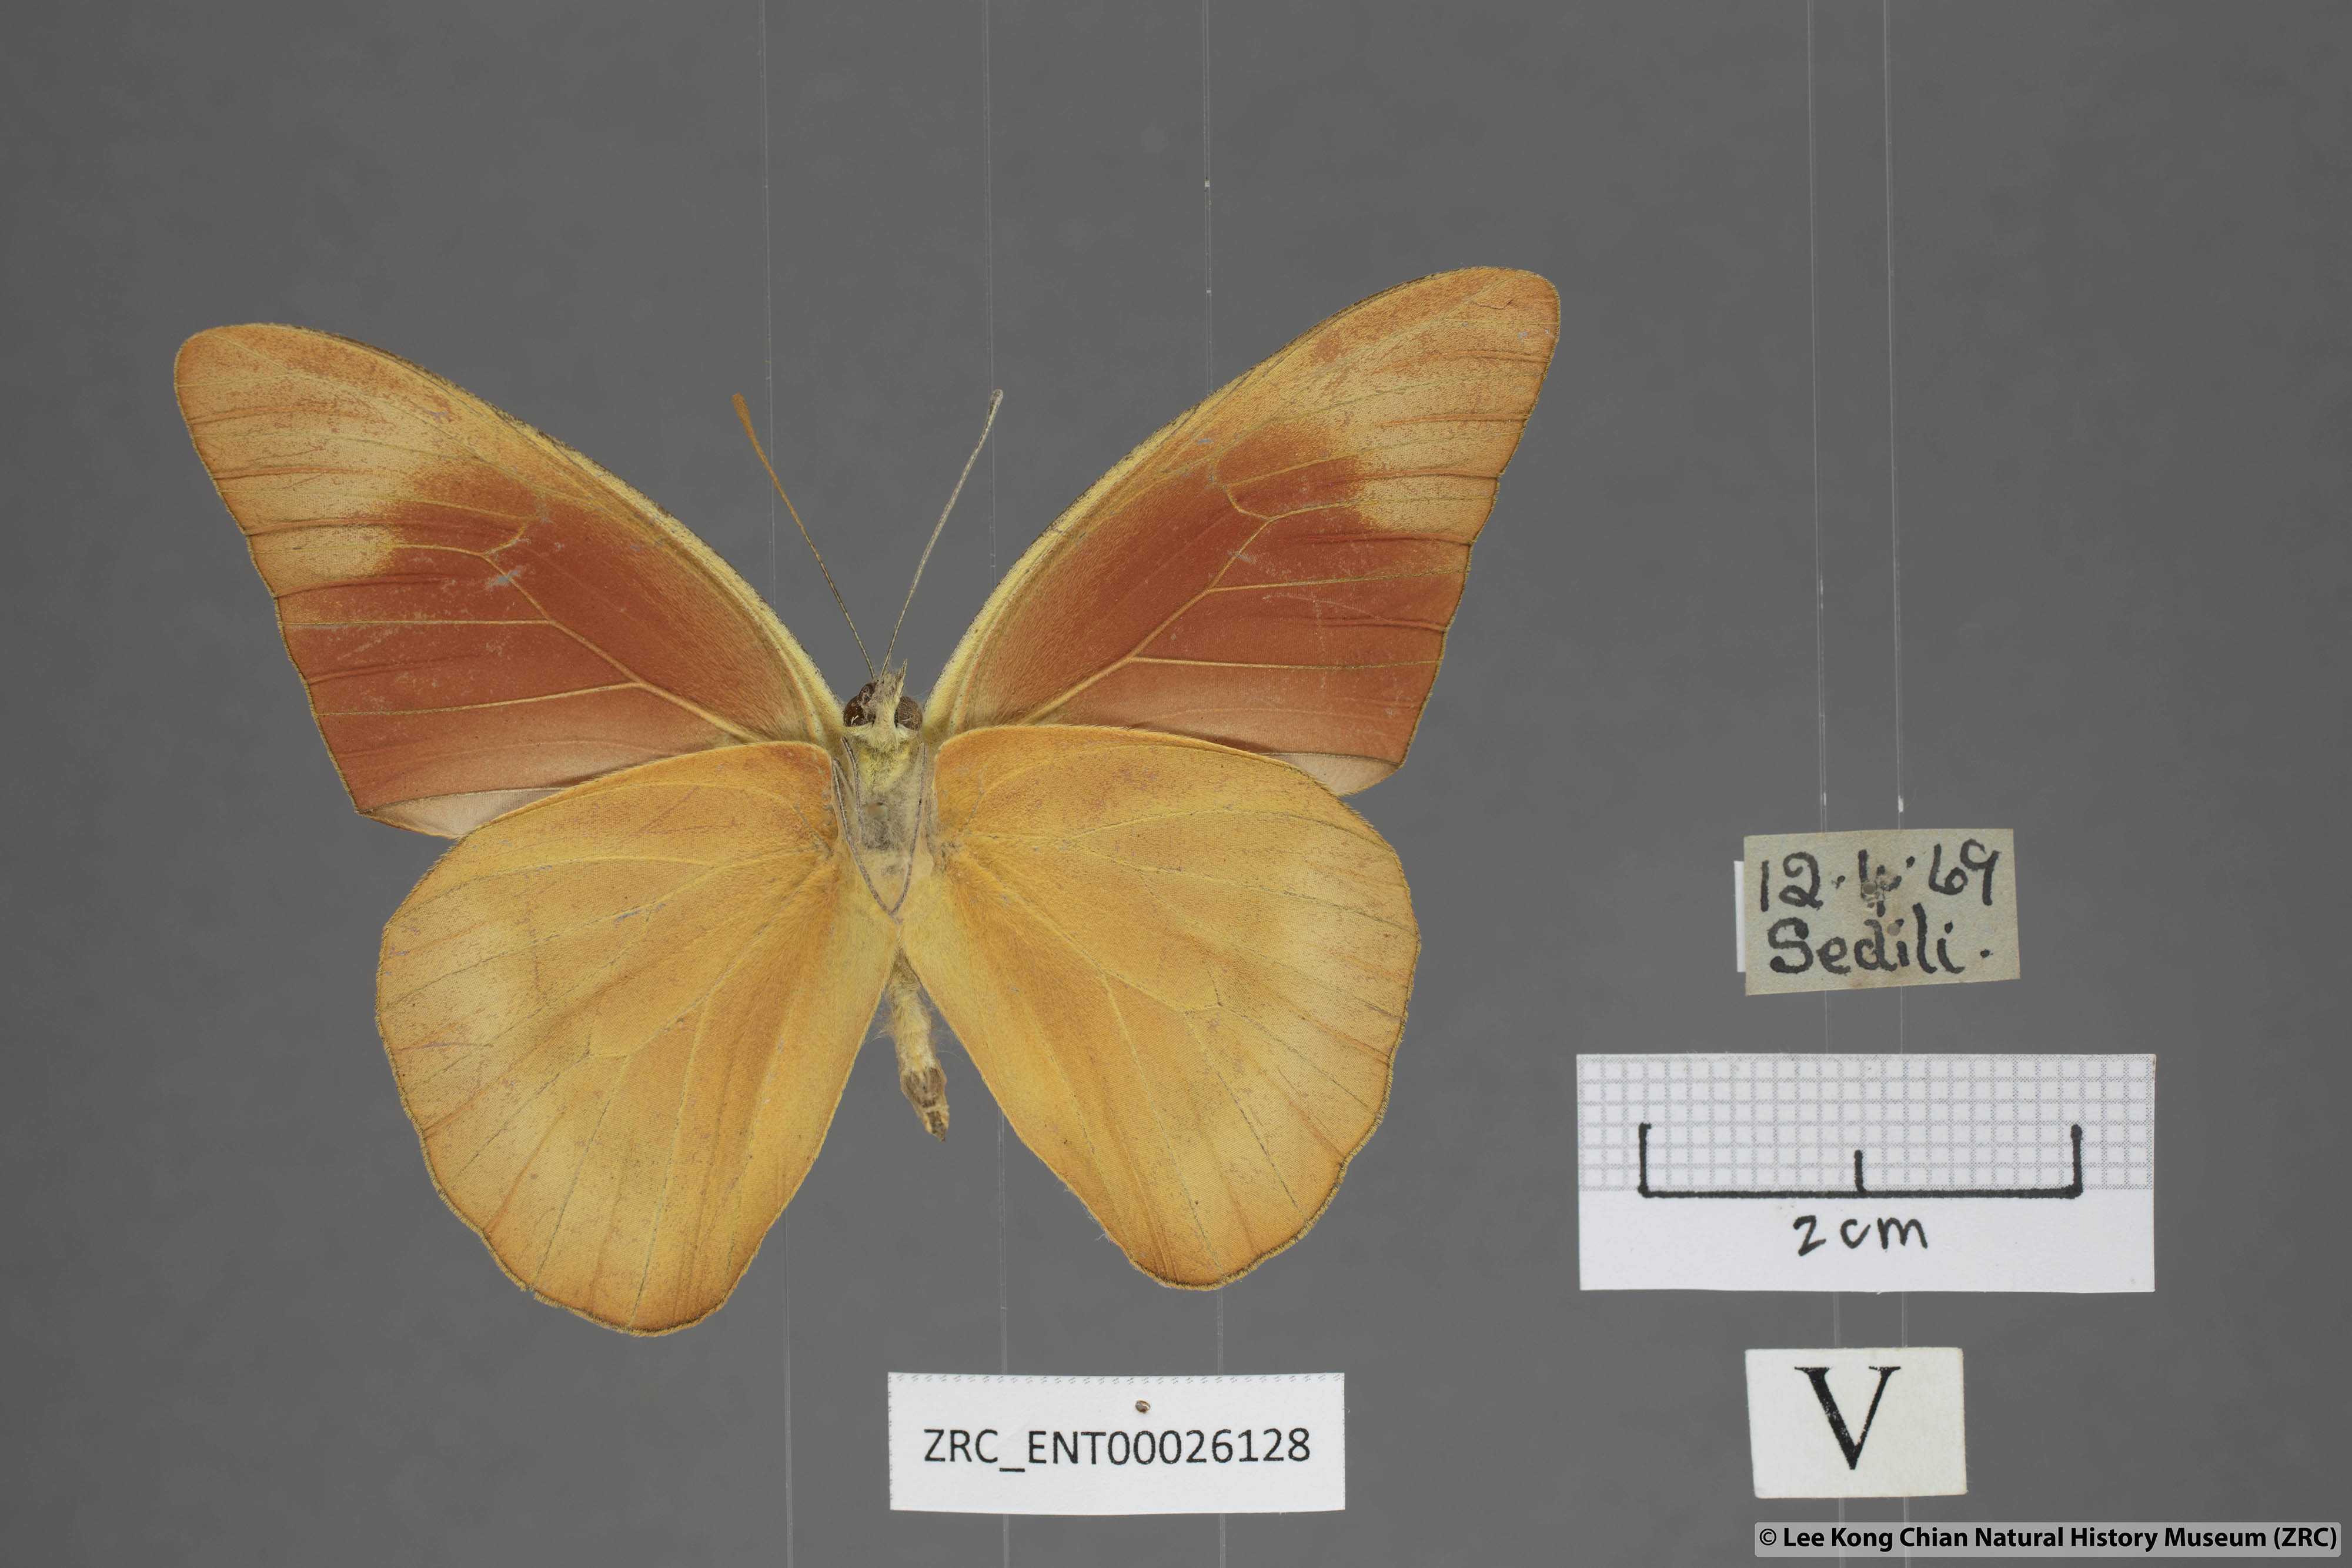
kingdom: Animalia
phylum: Arthropoda
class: Insecta
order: Lepidoptera
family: Pieridae
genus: Appias
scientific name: Appias nero
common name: Orange albatross
